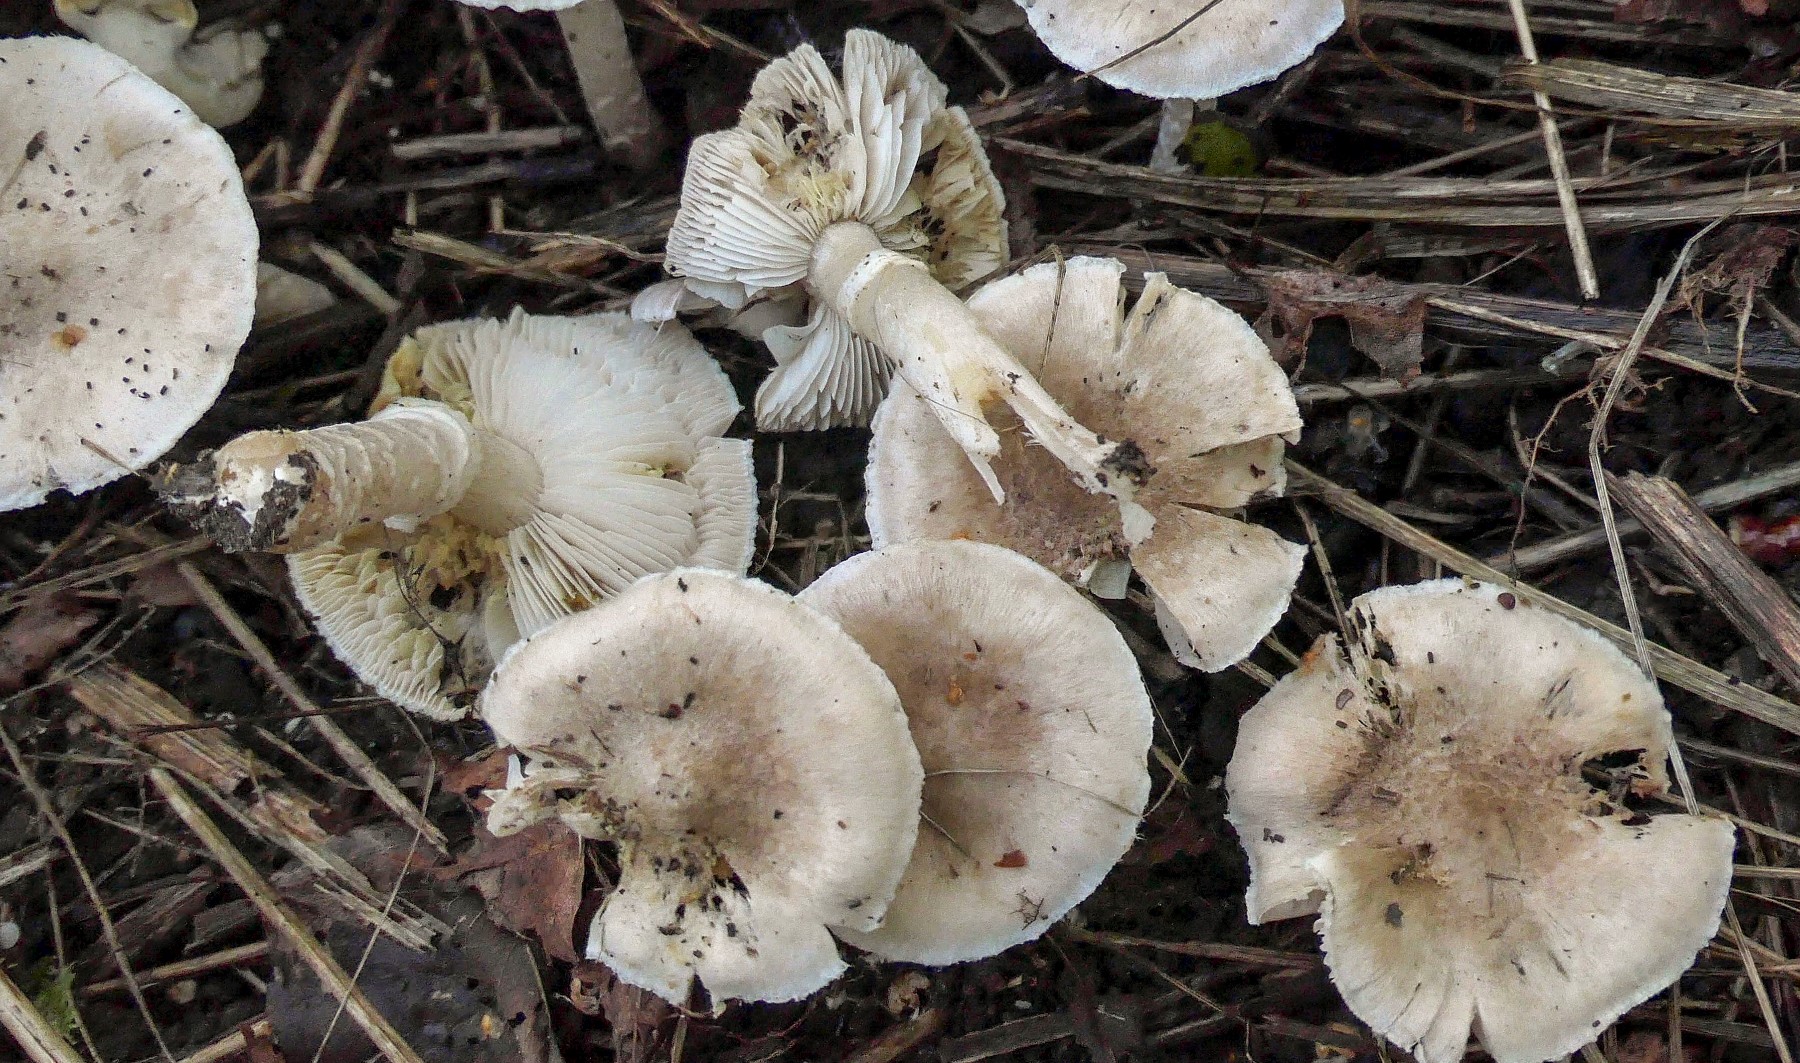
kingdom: Fungi
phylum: Basidiomycota
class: Agaricomycetes
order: Agaricales
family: Tricholomataceae
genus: Tricholoma
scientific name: Tricholoma cingulatum
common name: ring-ridderhat
